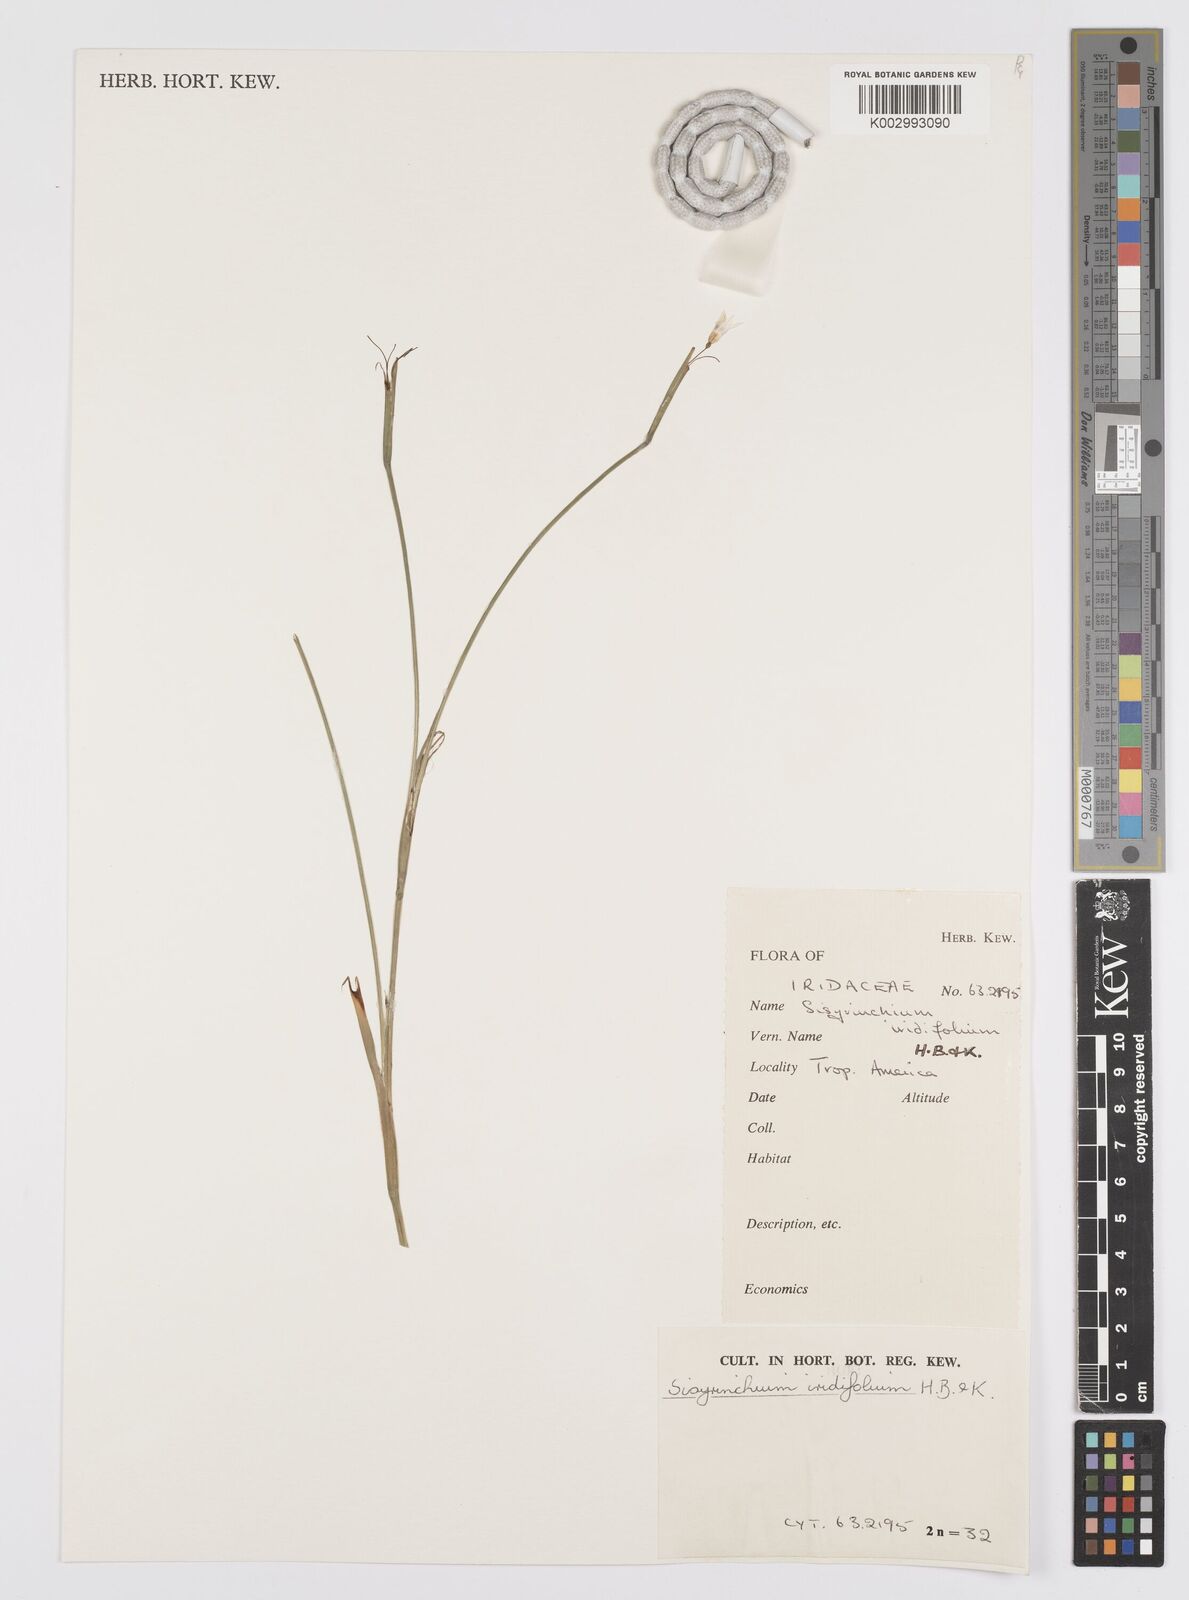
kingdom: Plantae
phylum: Tracheophyta
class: Liliopsida
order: Asparagales
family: Iridaceae
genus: Sisyrinchium
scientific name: Sisyrinchium micranthum
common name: Bermuda pigroot
